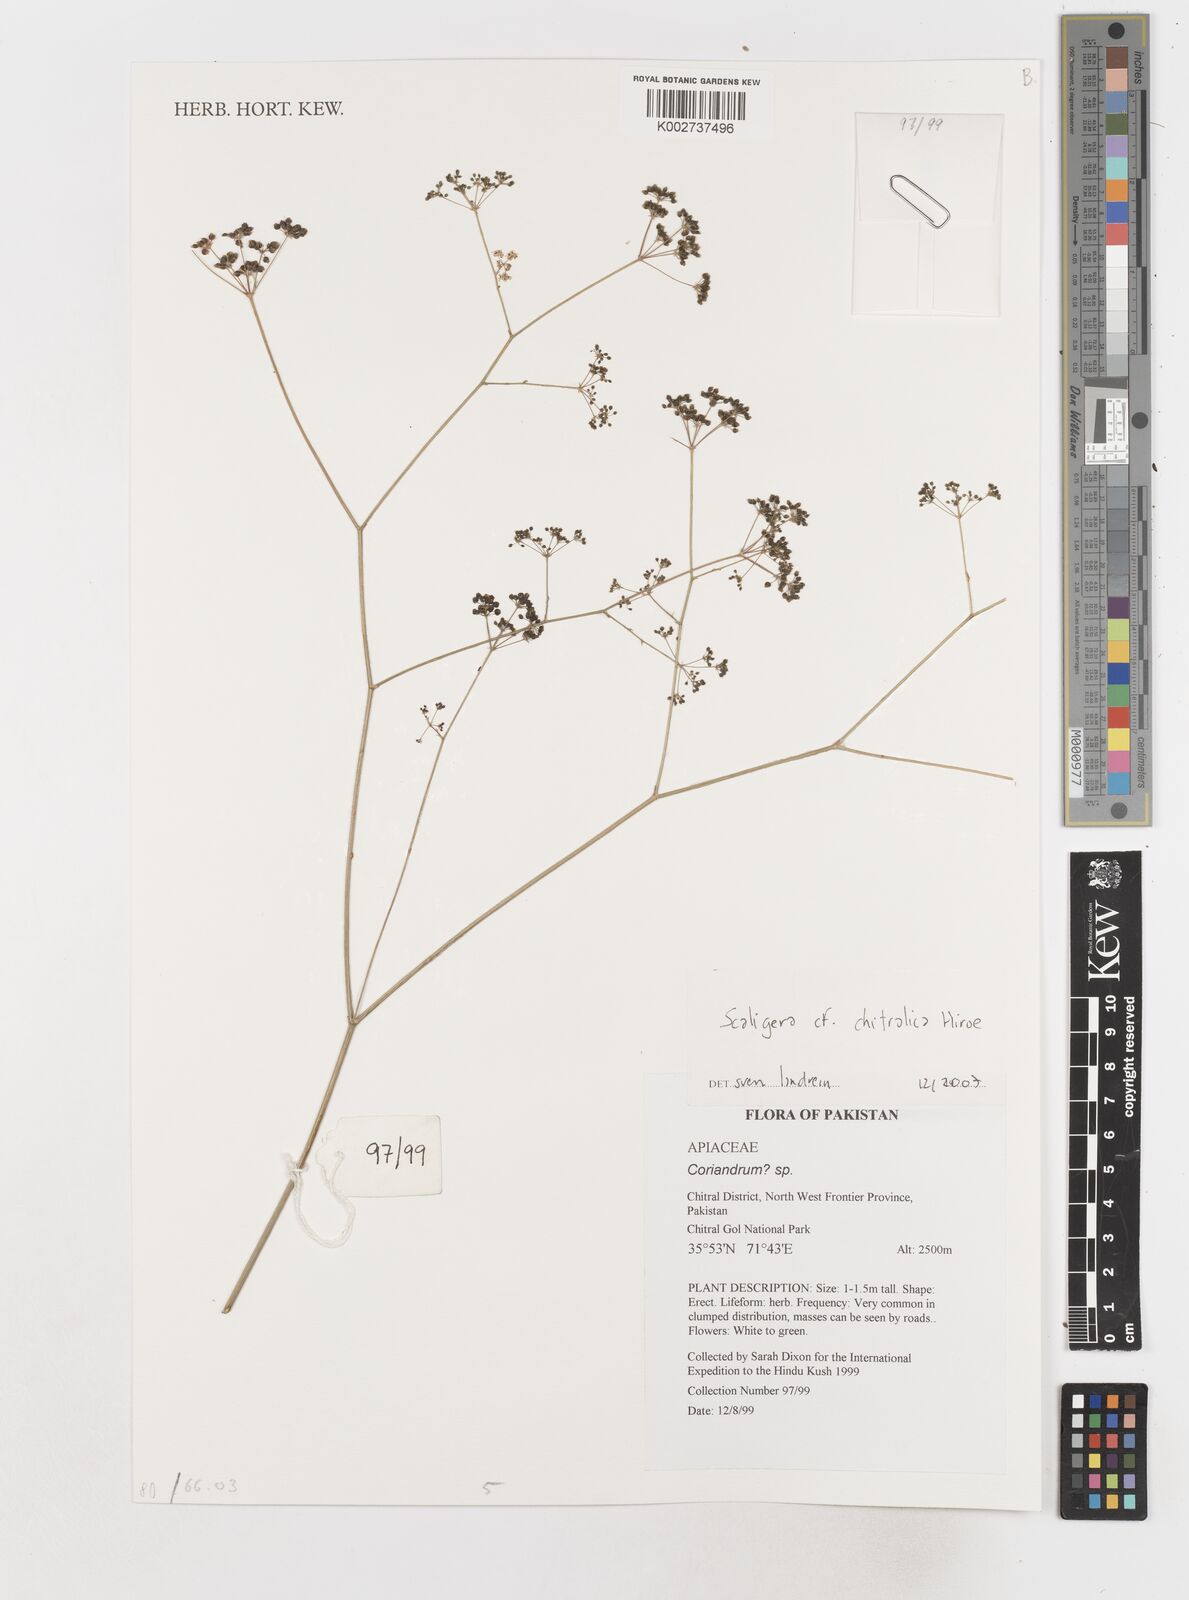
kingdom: Plantae
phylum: Tracheophyta
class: Magnoliopsida
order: Apiales
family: Apiaceae
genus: Scaligeria
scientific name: Scaligeria
